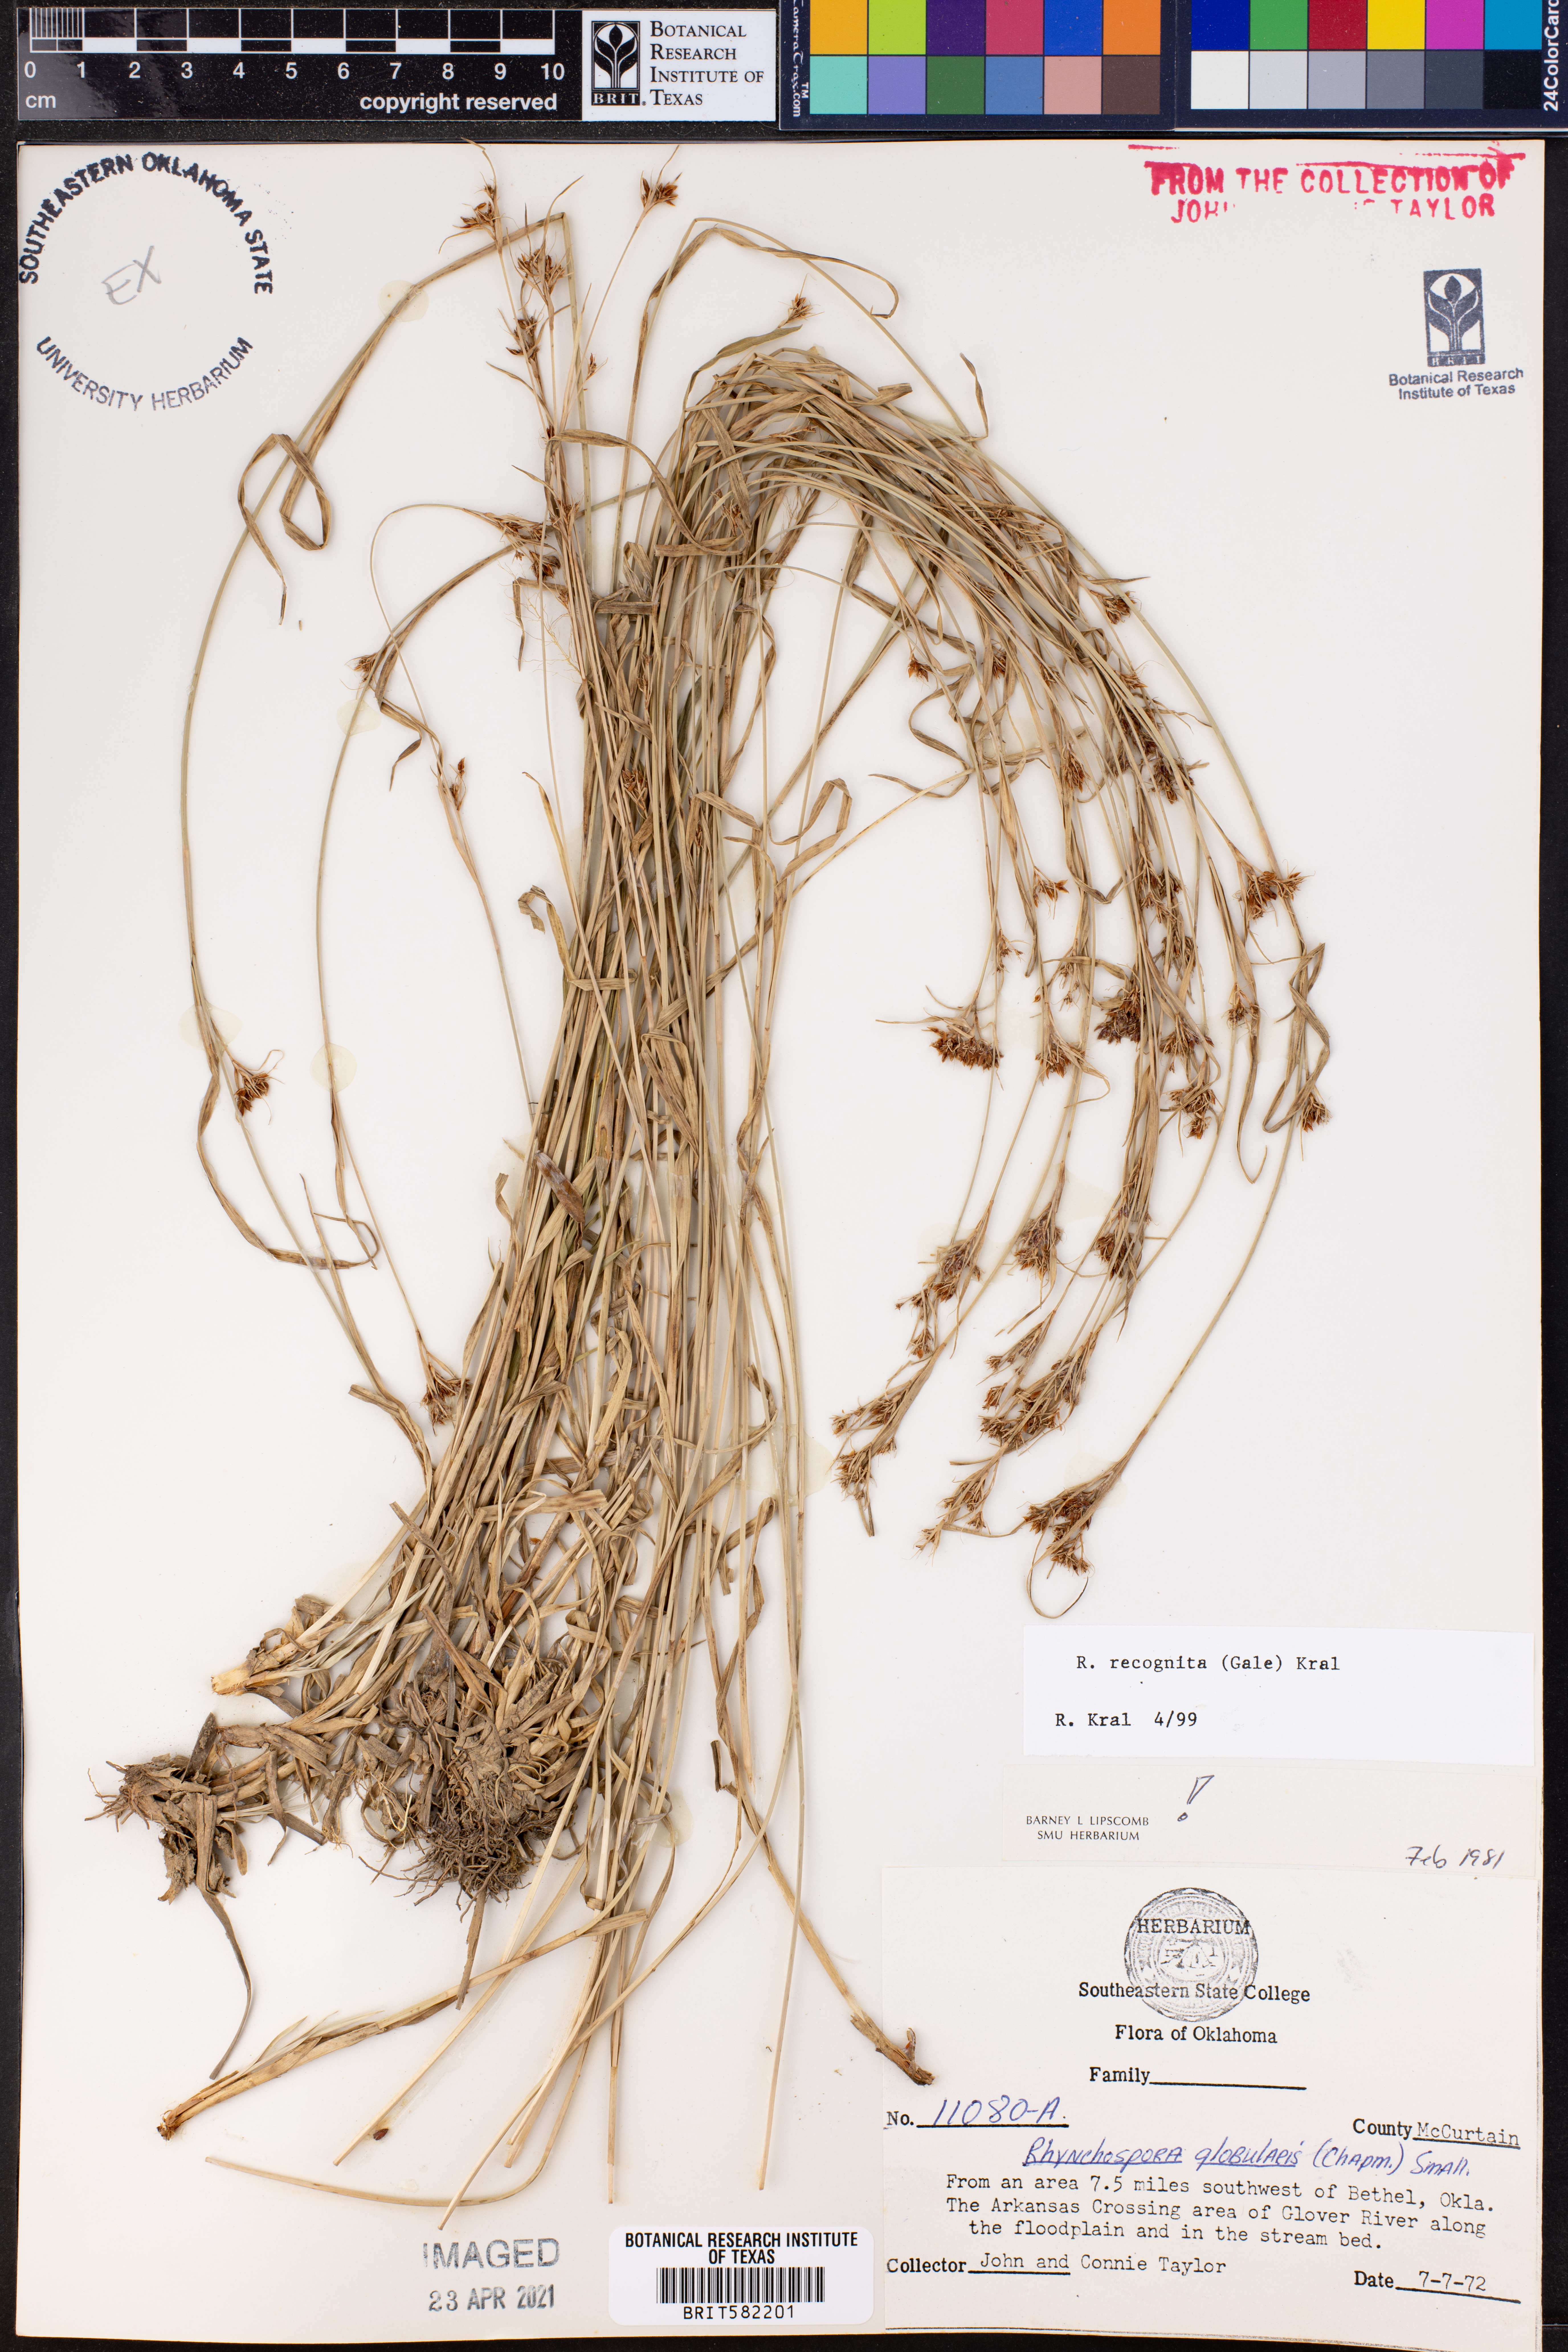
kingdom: Plantae
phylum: Tracheophyta
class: Liliopsida
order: Poales
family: Cyperaceae
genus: Rhynchospora
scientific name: Rhynchospora recognita
